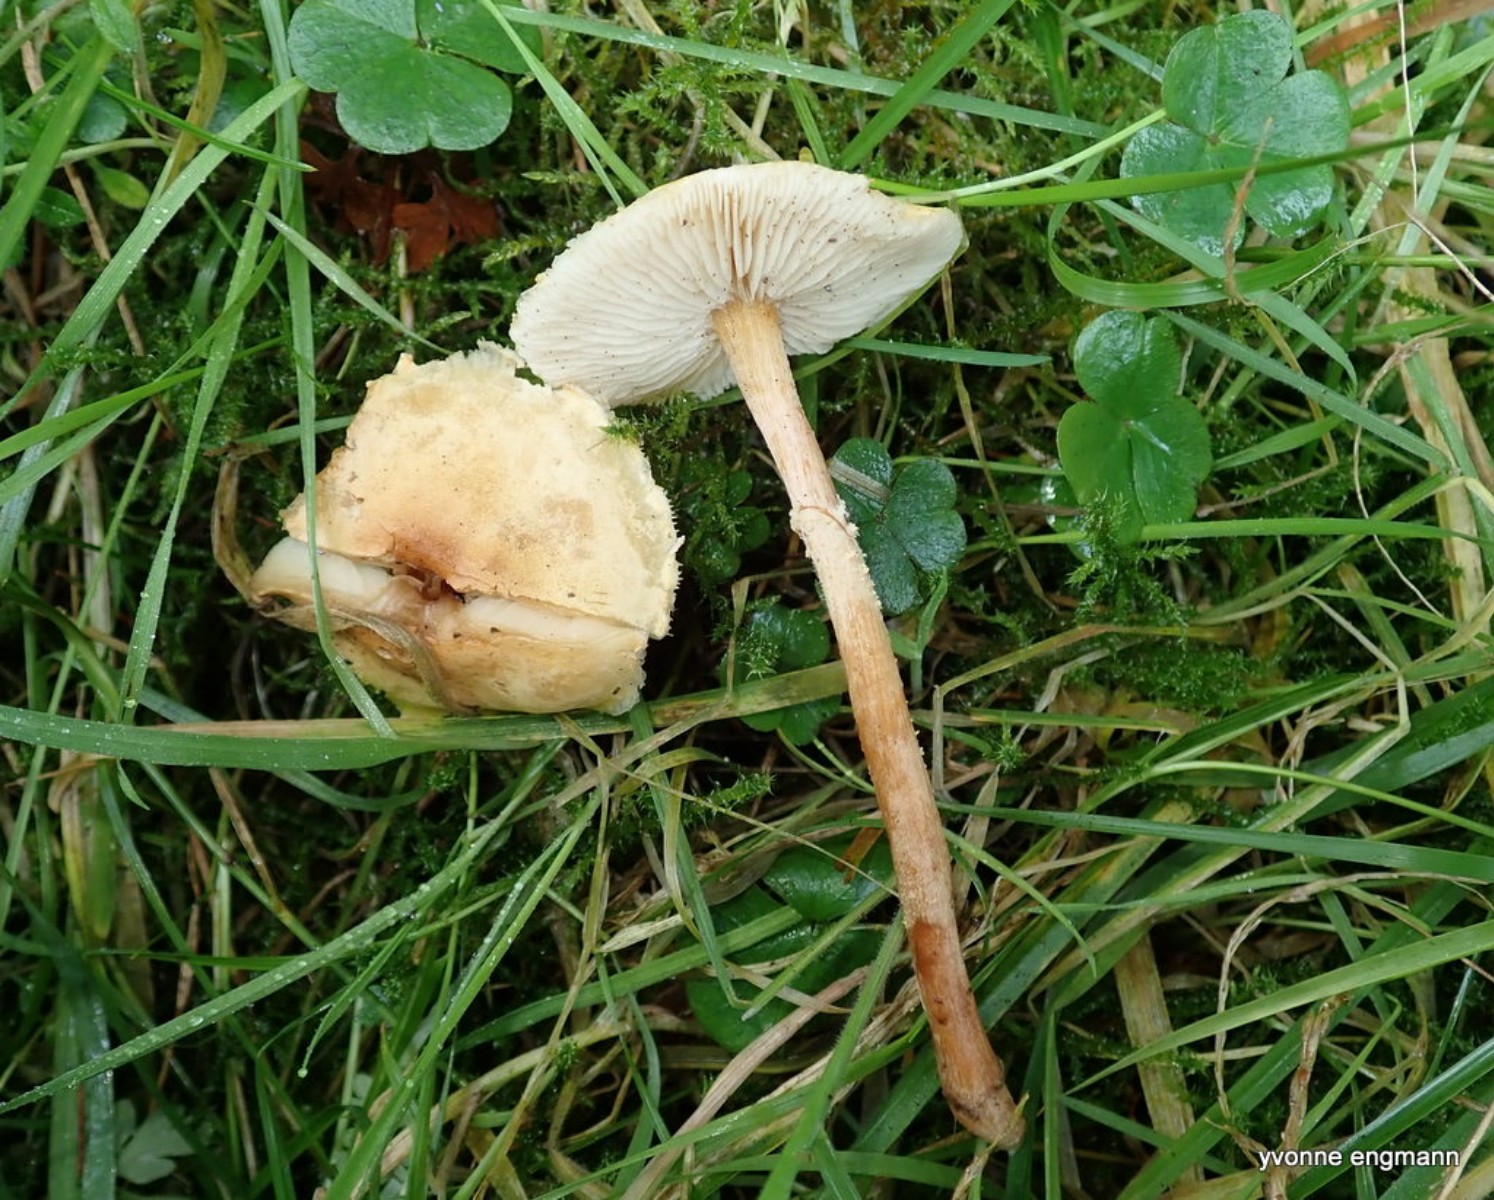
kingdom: Fungi
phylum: Basidiomycota
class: Agaricomycetes
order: Agaricales
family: Tricholomataceae
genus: Cystoderma
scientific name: Cystoderma amianthinum
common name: okkergul grynhat
